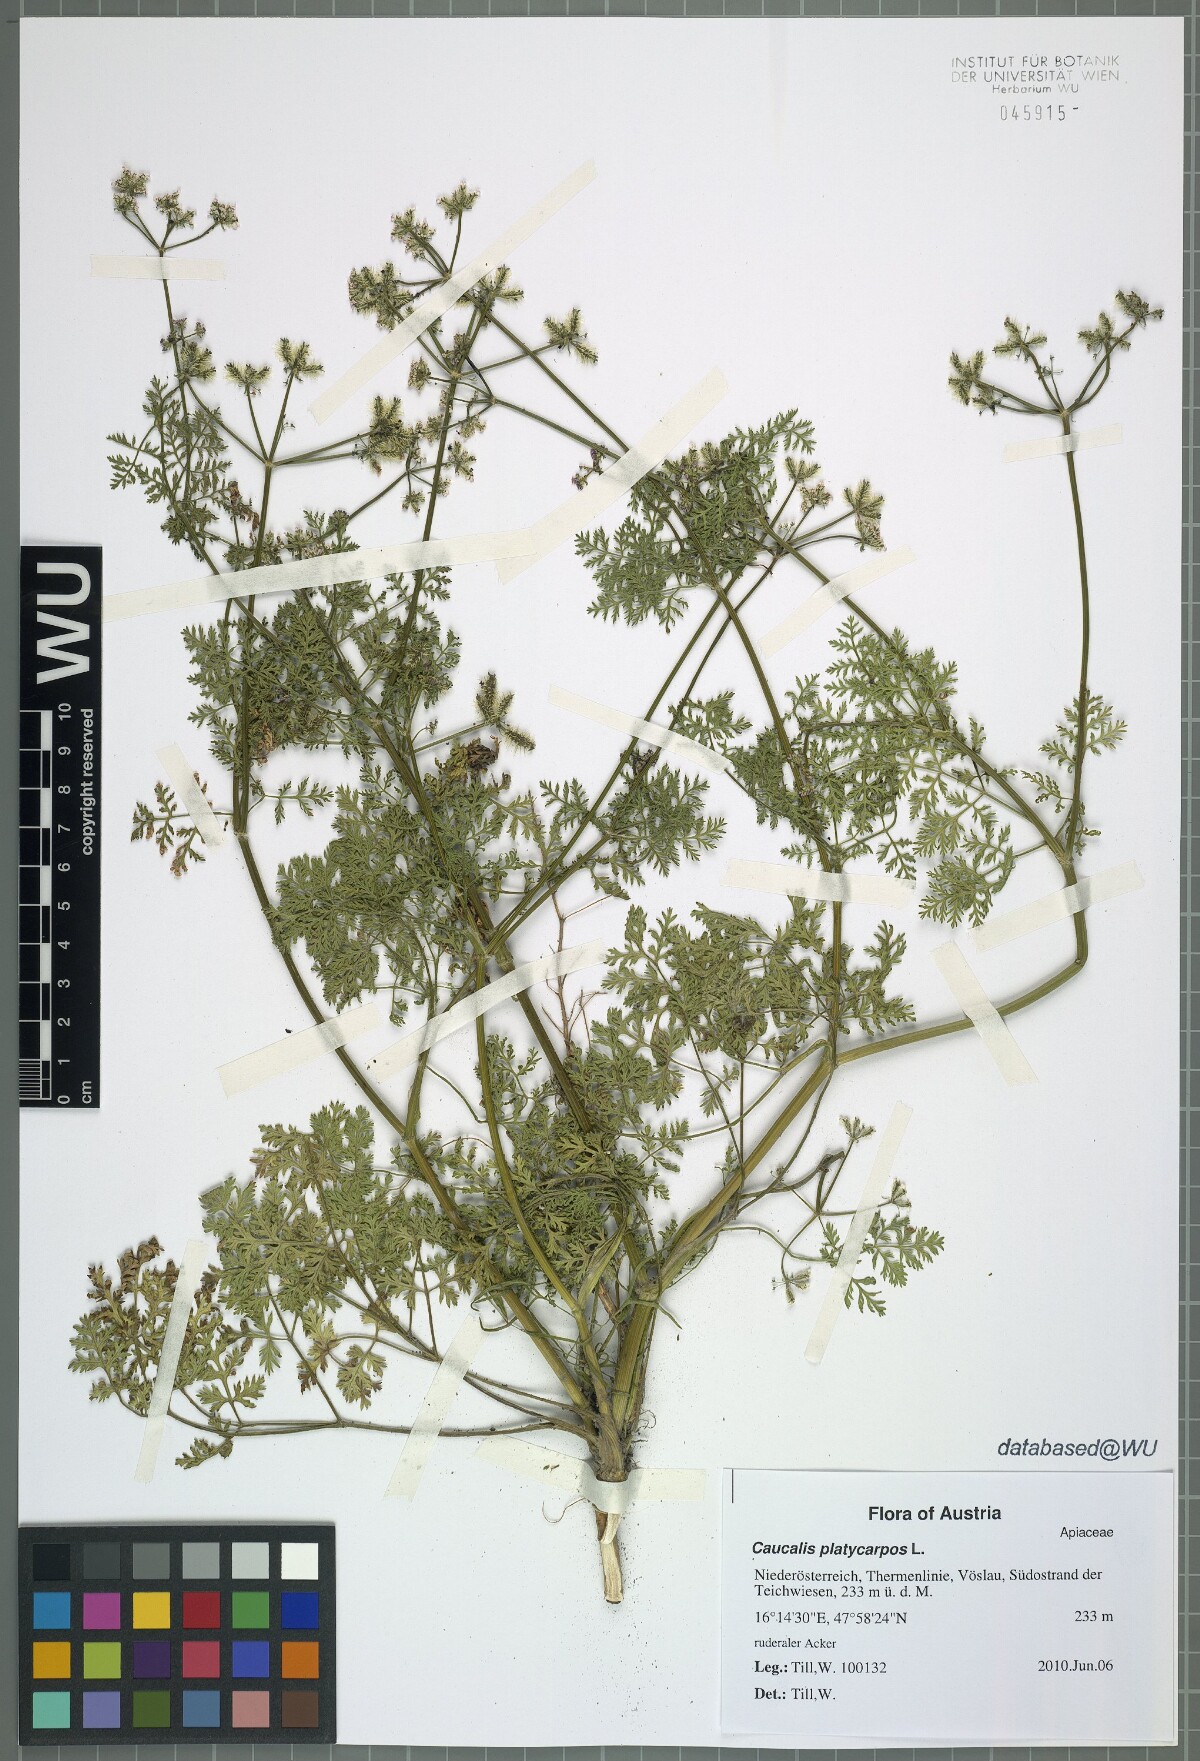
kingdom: Plantae
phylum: Tracheophyta
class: Magnoliopsida
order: Apiales
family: Apiaceae
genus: Caucalis
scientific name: Caucalis platycarpos
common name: Small bur-parsley
